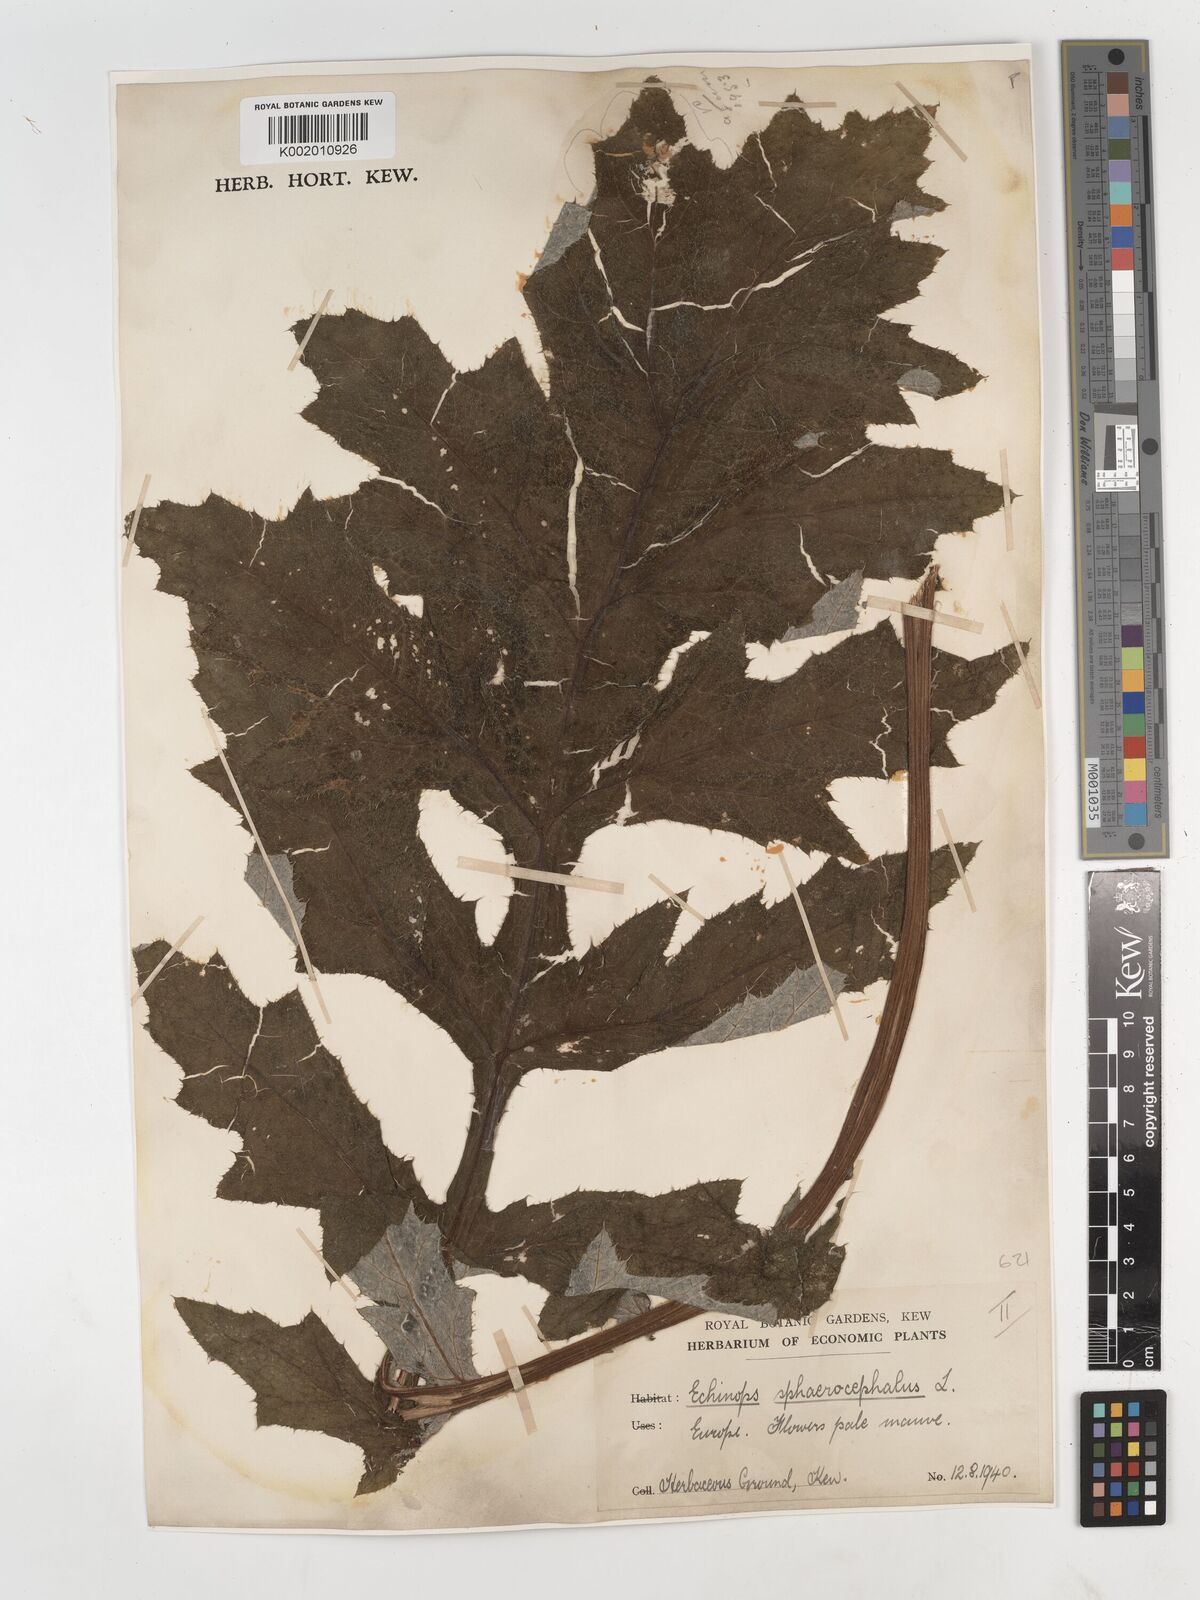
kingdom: Plantae
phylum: Tracheophyta
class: Magnoliopsida
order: Asterales
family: Asteraceae
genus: Echinops
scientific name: Echinops sphaerocephalus
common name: Glandular globe-thistle
